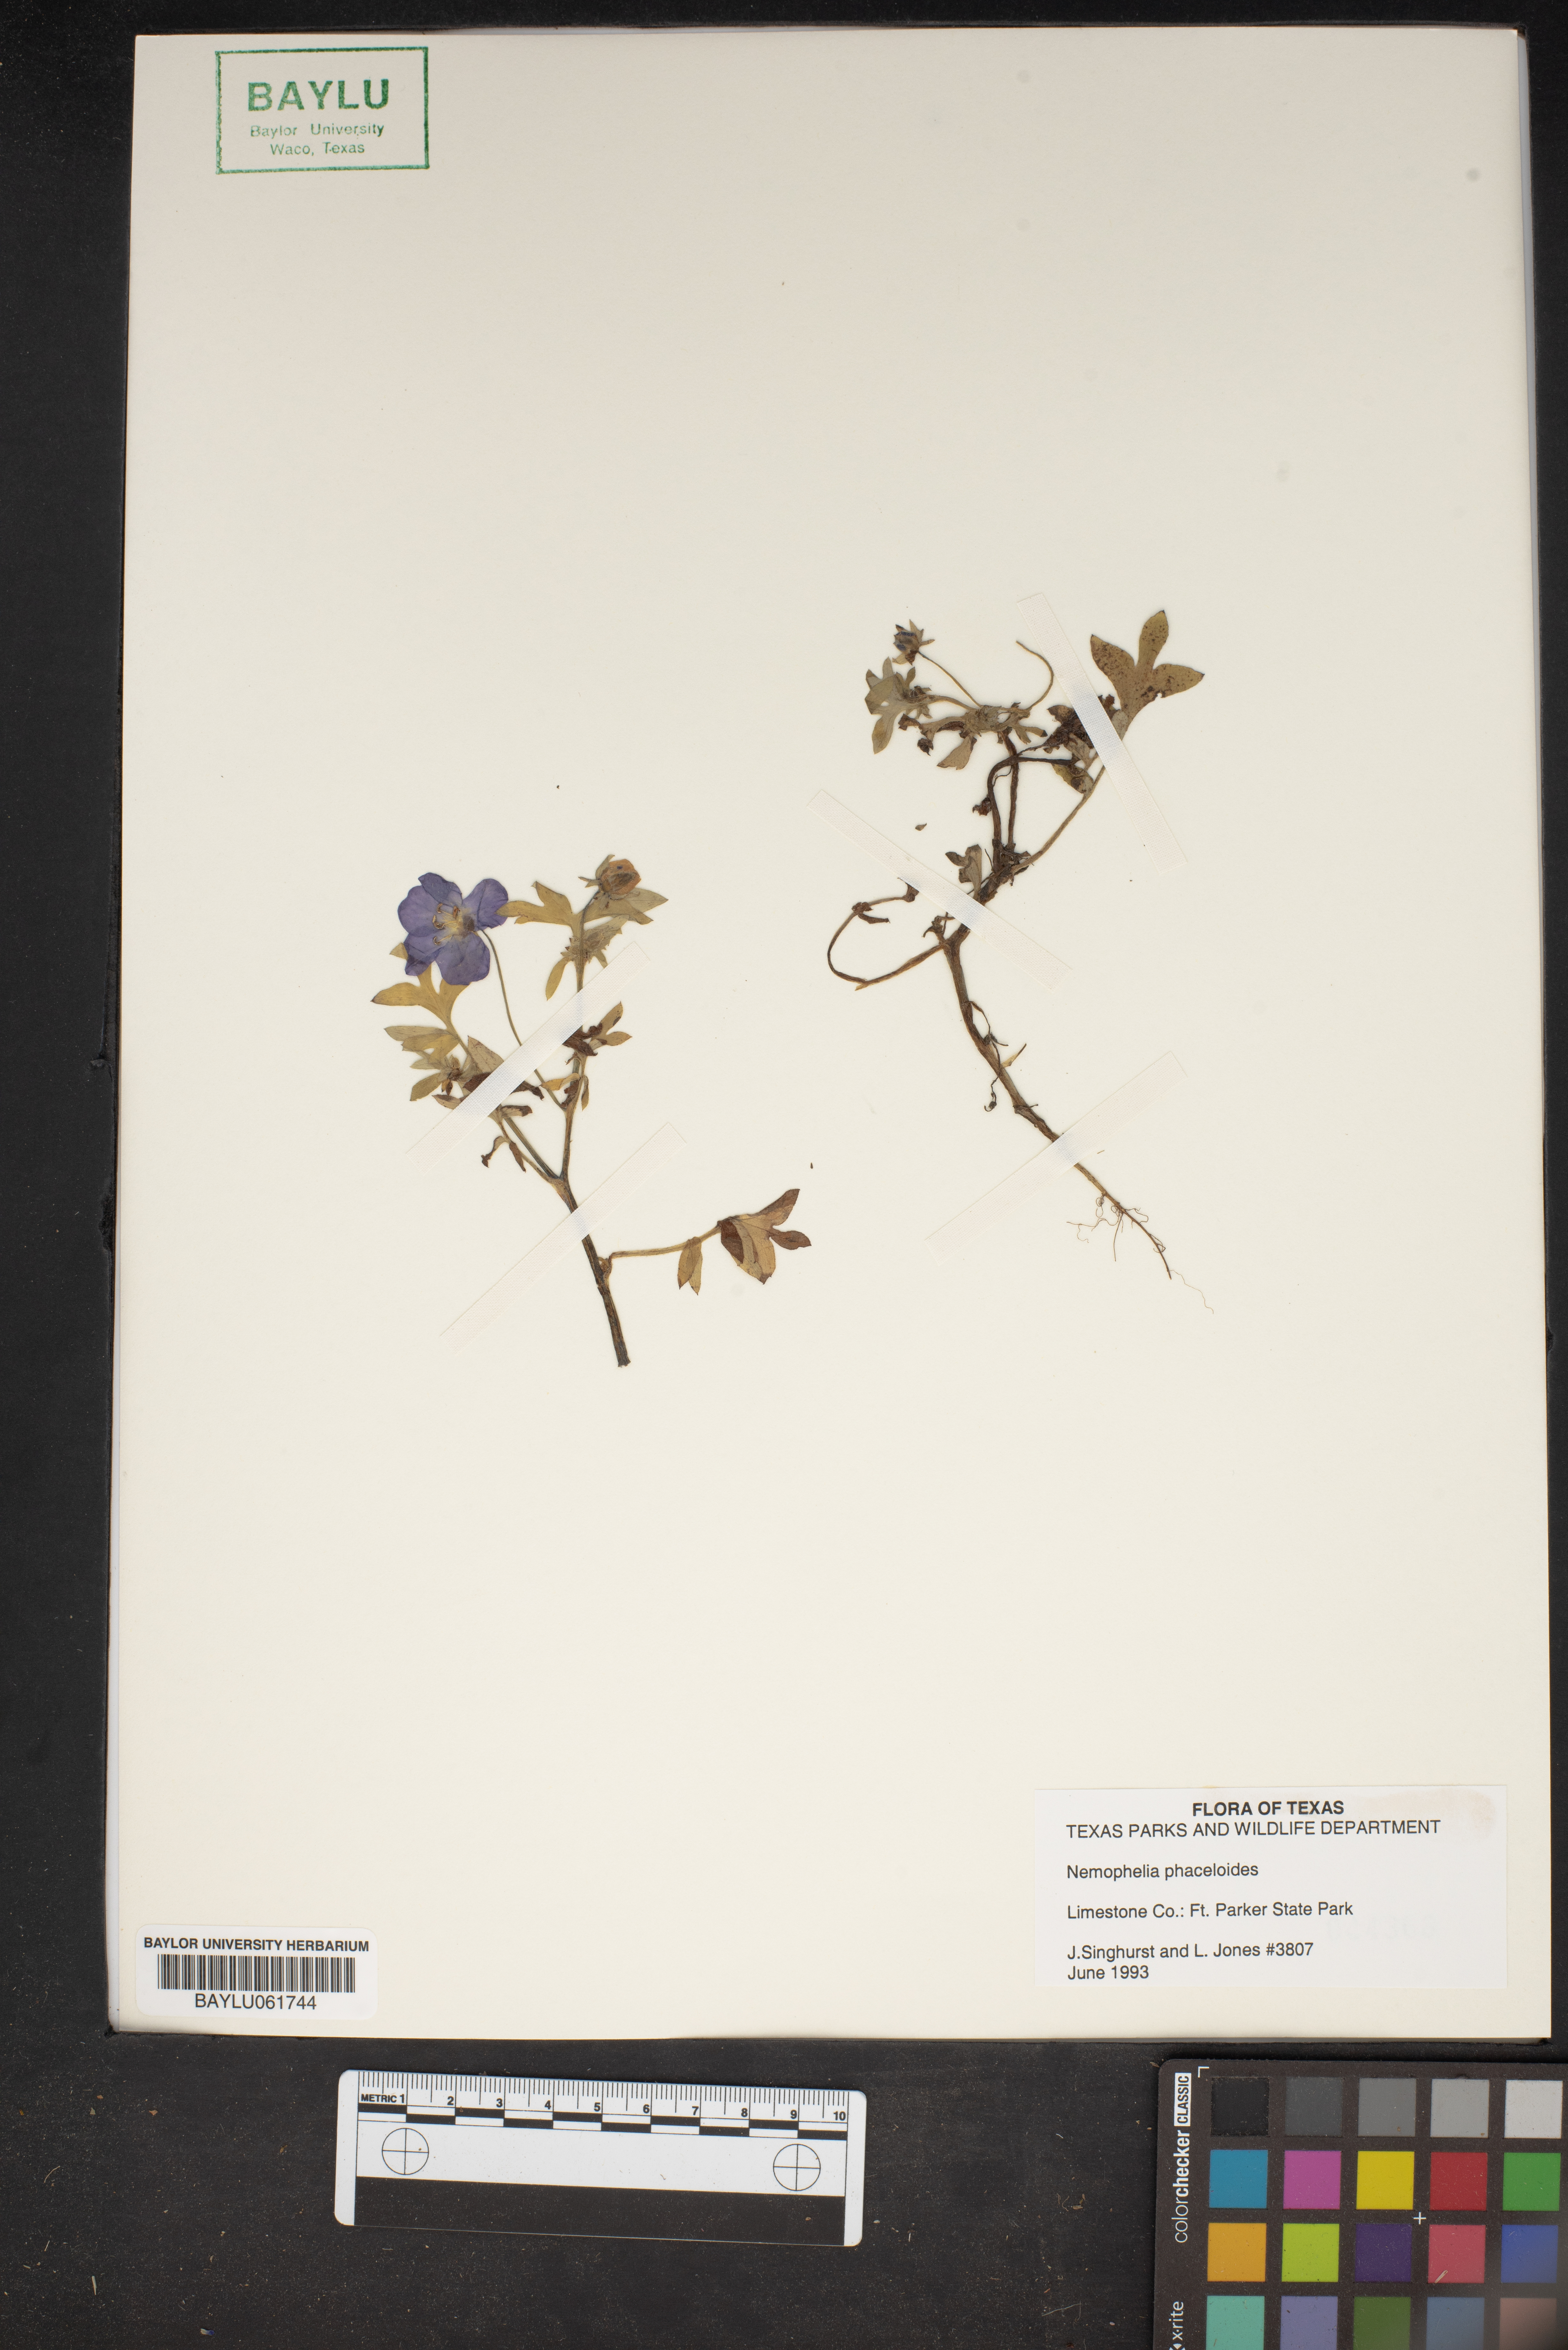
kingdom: Plantae
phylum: Tracheophyta
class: Magnoliopsida
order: Boraginales
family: Hydrophyllaceae
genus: Nemophila
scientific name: Nemophila phacelioides
